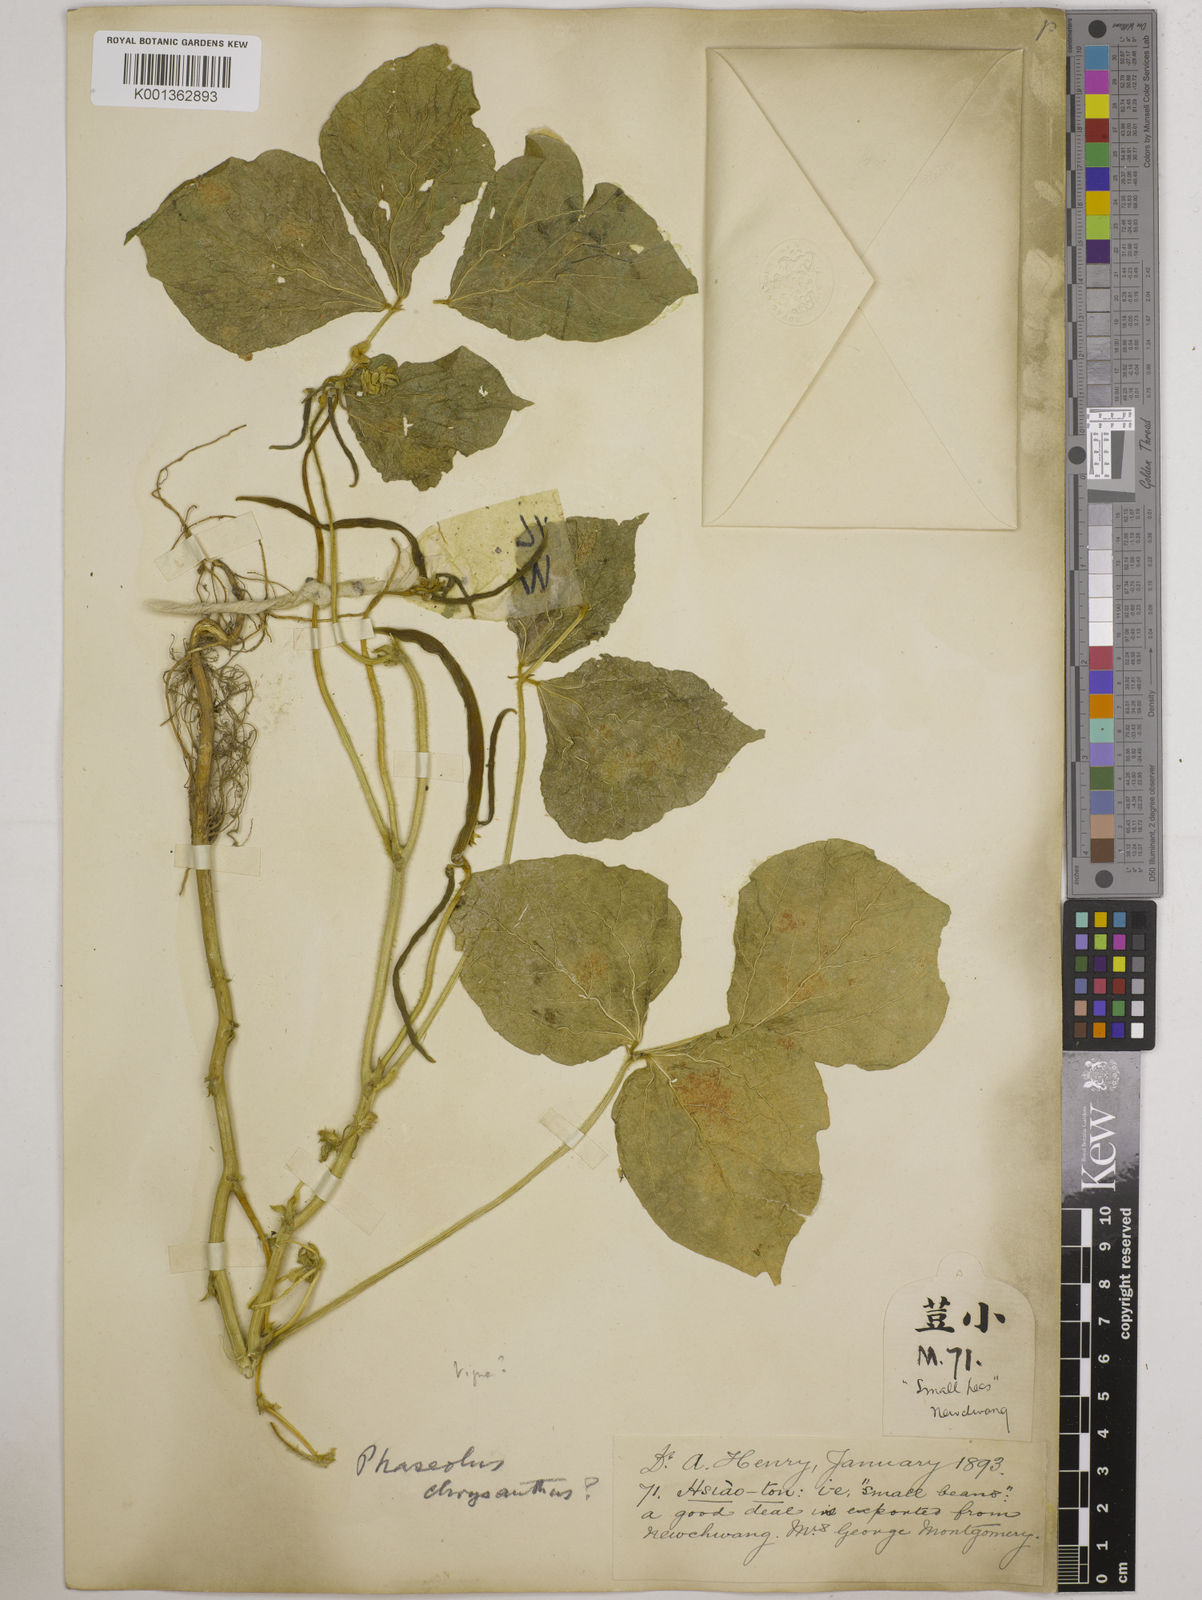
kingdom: Plantae
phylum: Tracheophyta
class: Magnoliopsida
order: Fabales
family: Fabaceae
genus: Vigna
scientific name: Vigna angularis
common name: Adzuki bean
